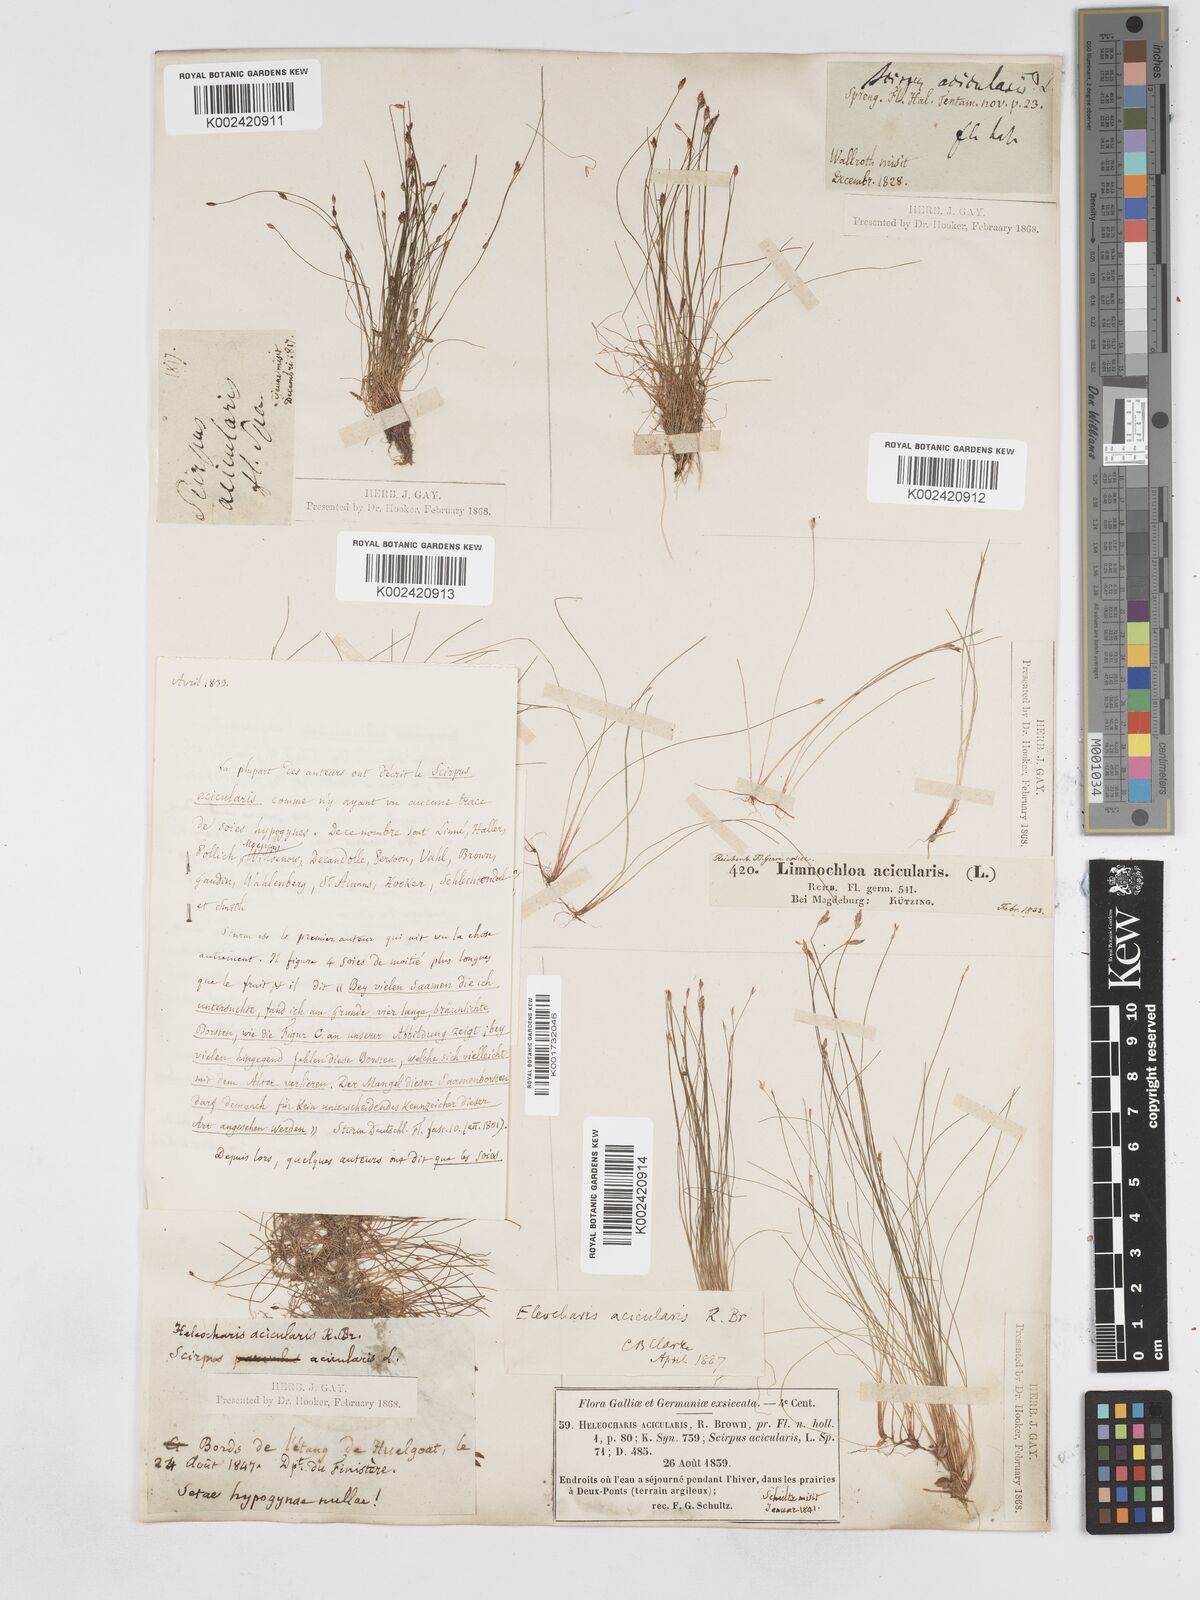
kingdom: Plantae
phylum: Tracheophyta
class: Liliopsida
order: Poales
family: Cyperaceae
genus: Eleocharis
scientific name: Eleocharis acicularis
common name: Needle spike-rush
